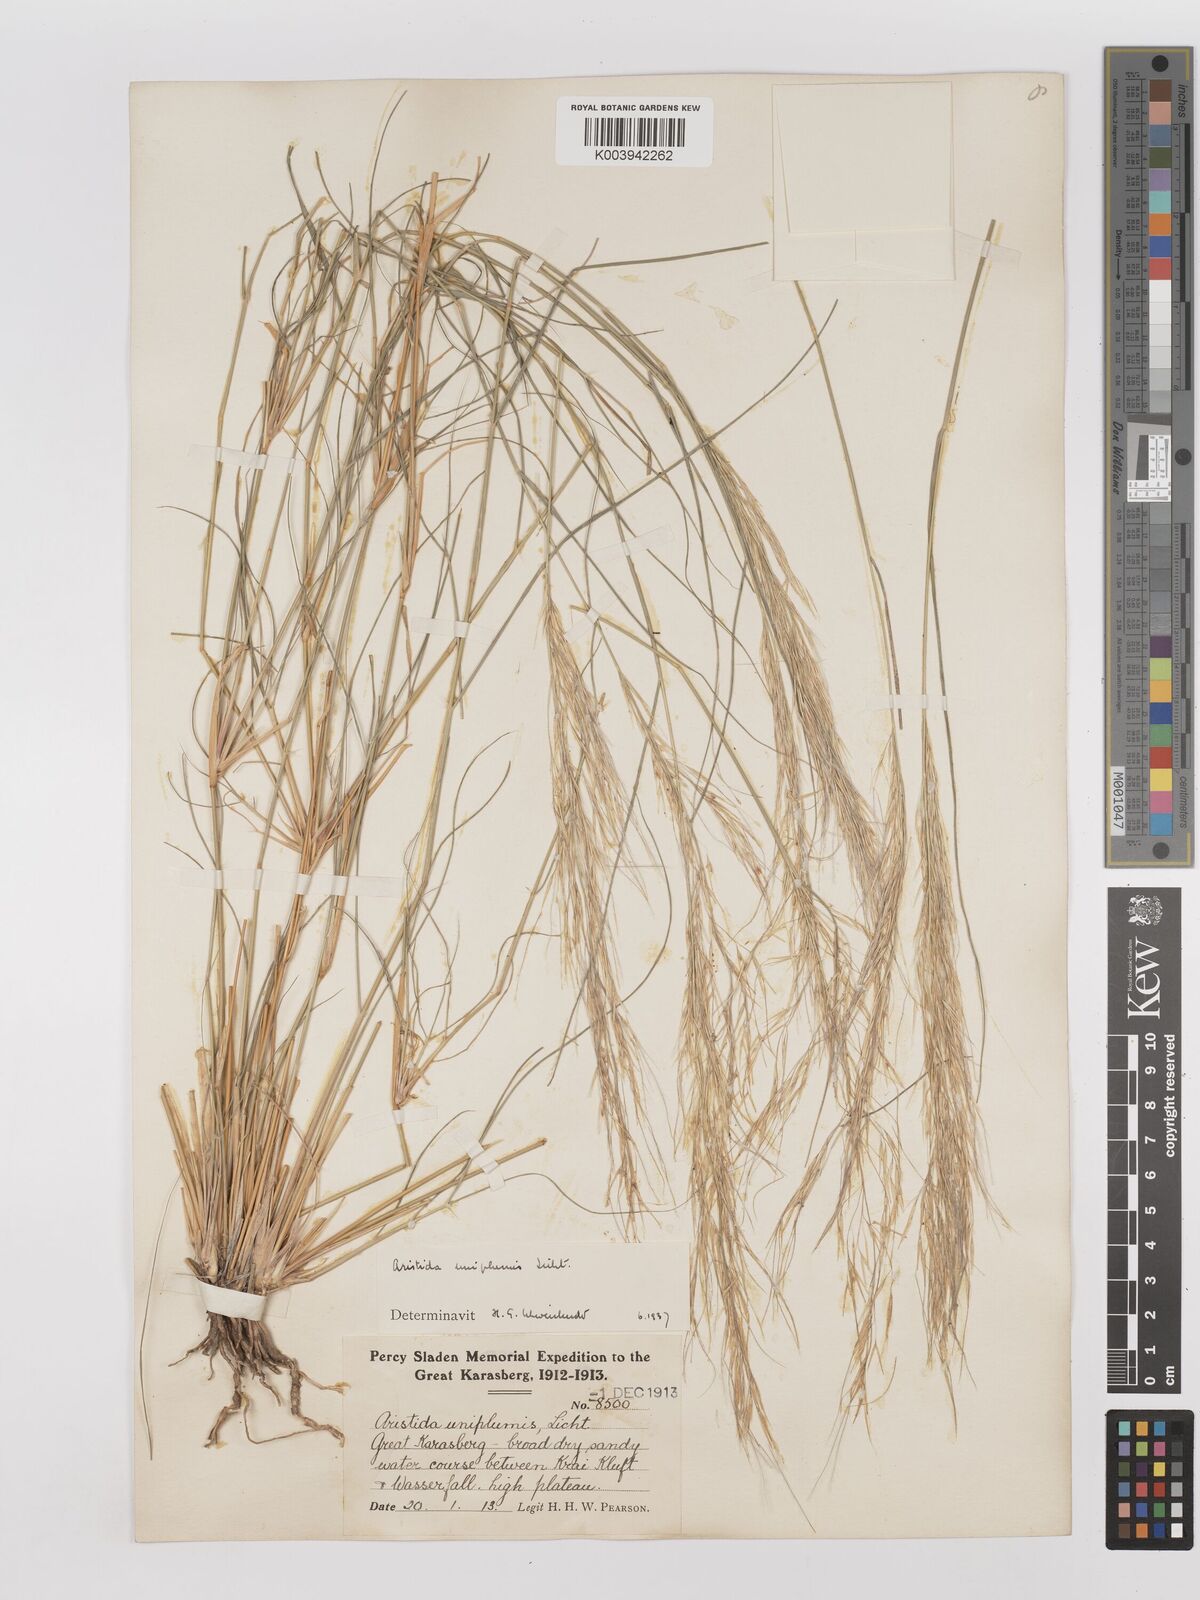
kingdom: Plantae
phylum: Tracheophyta
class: Liliopsida
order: Poales
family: Poaceae
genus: Stipagrostis
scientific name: Stipagrostis uniplumis
